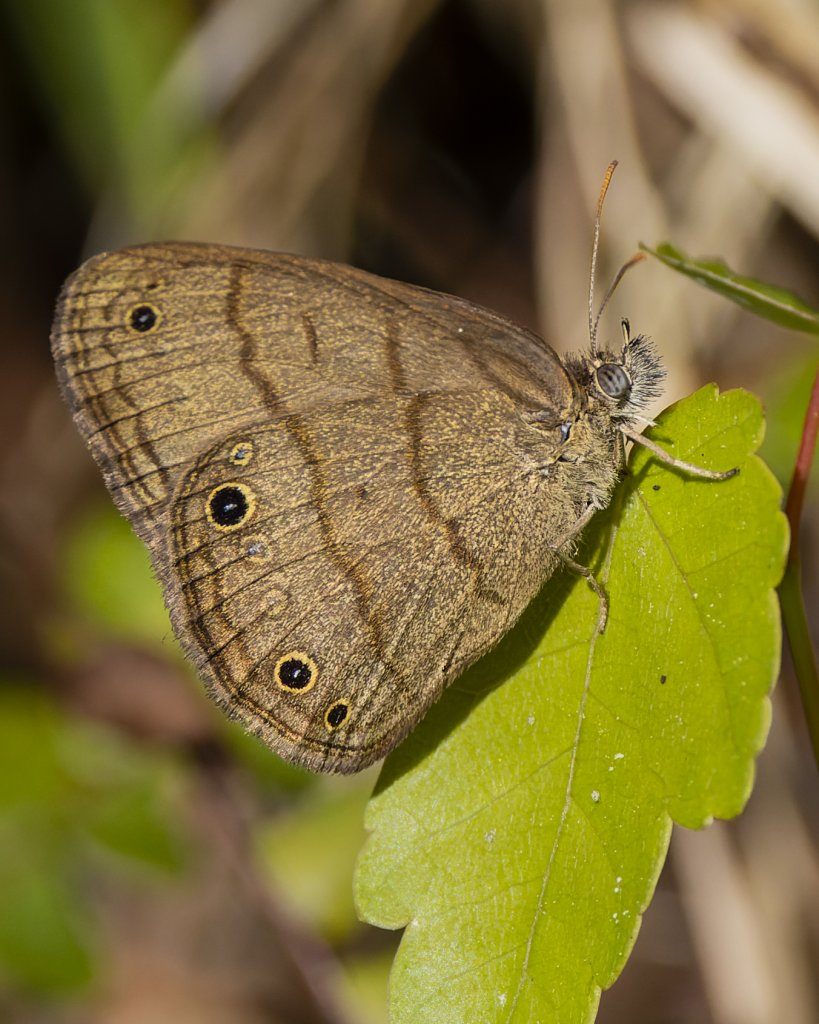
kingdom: Animalia
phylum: Arthropoda
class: Insecta
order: Lepidoptera
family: Nymphalidae
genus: Hermeuptychia
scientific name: Hermeuptychia hermes
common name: Carolina Satyr
